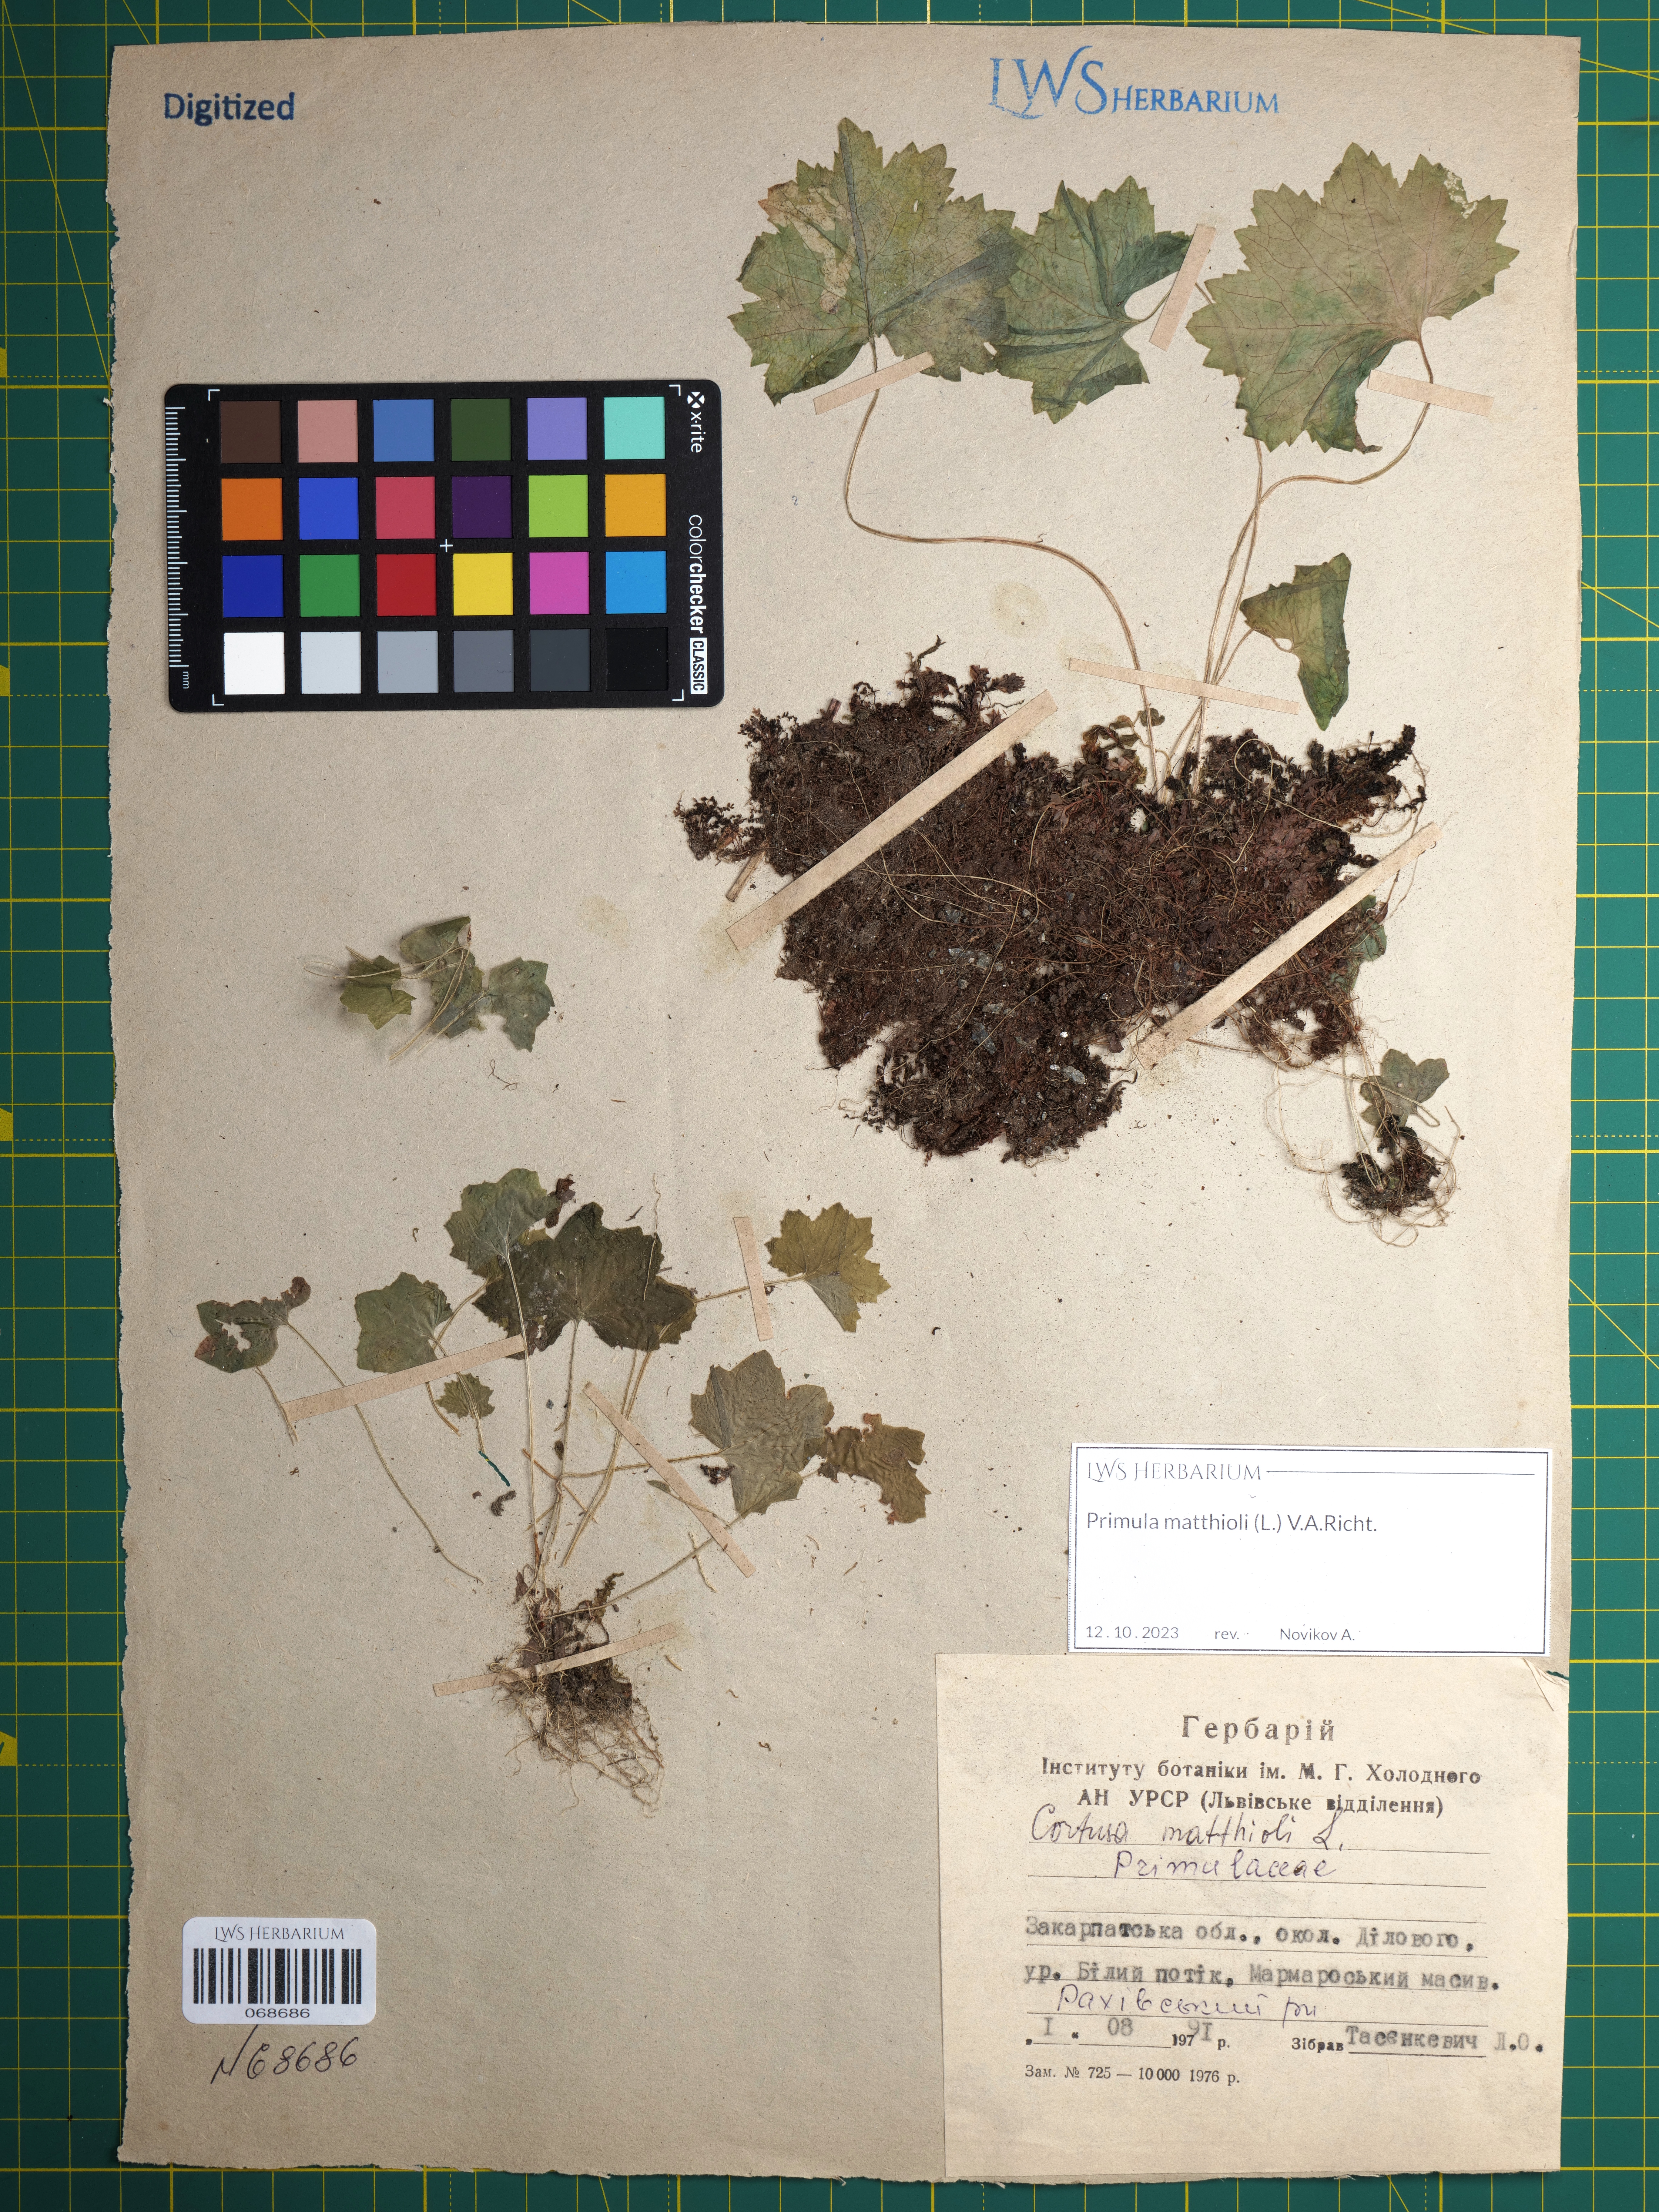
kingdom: Plantae
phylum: Tracheophyta
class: Magnoliopsida
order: Ericales
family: Primulaceae
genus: Primula
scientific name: Primula matthioli
